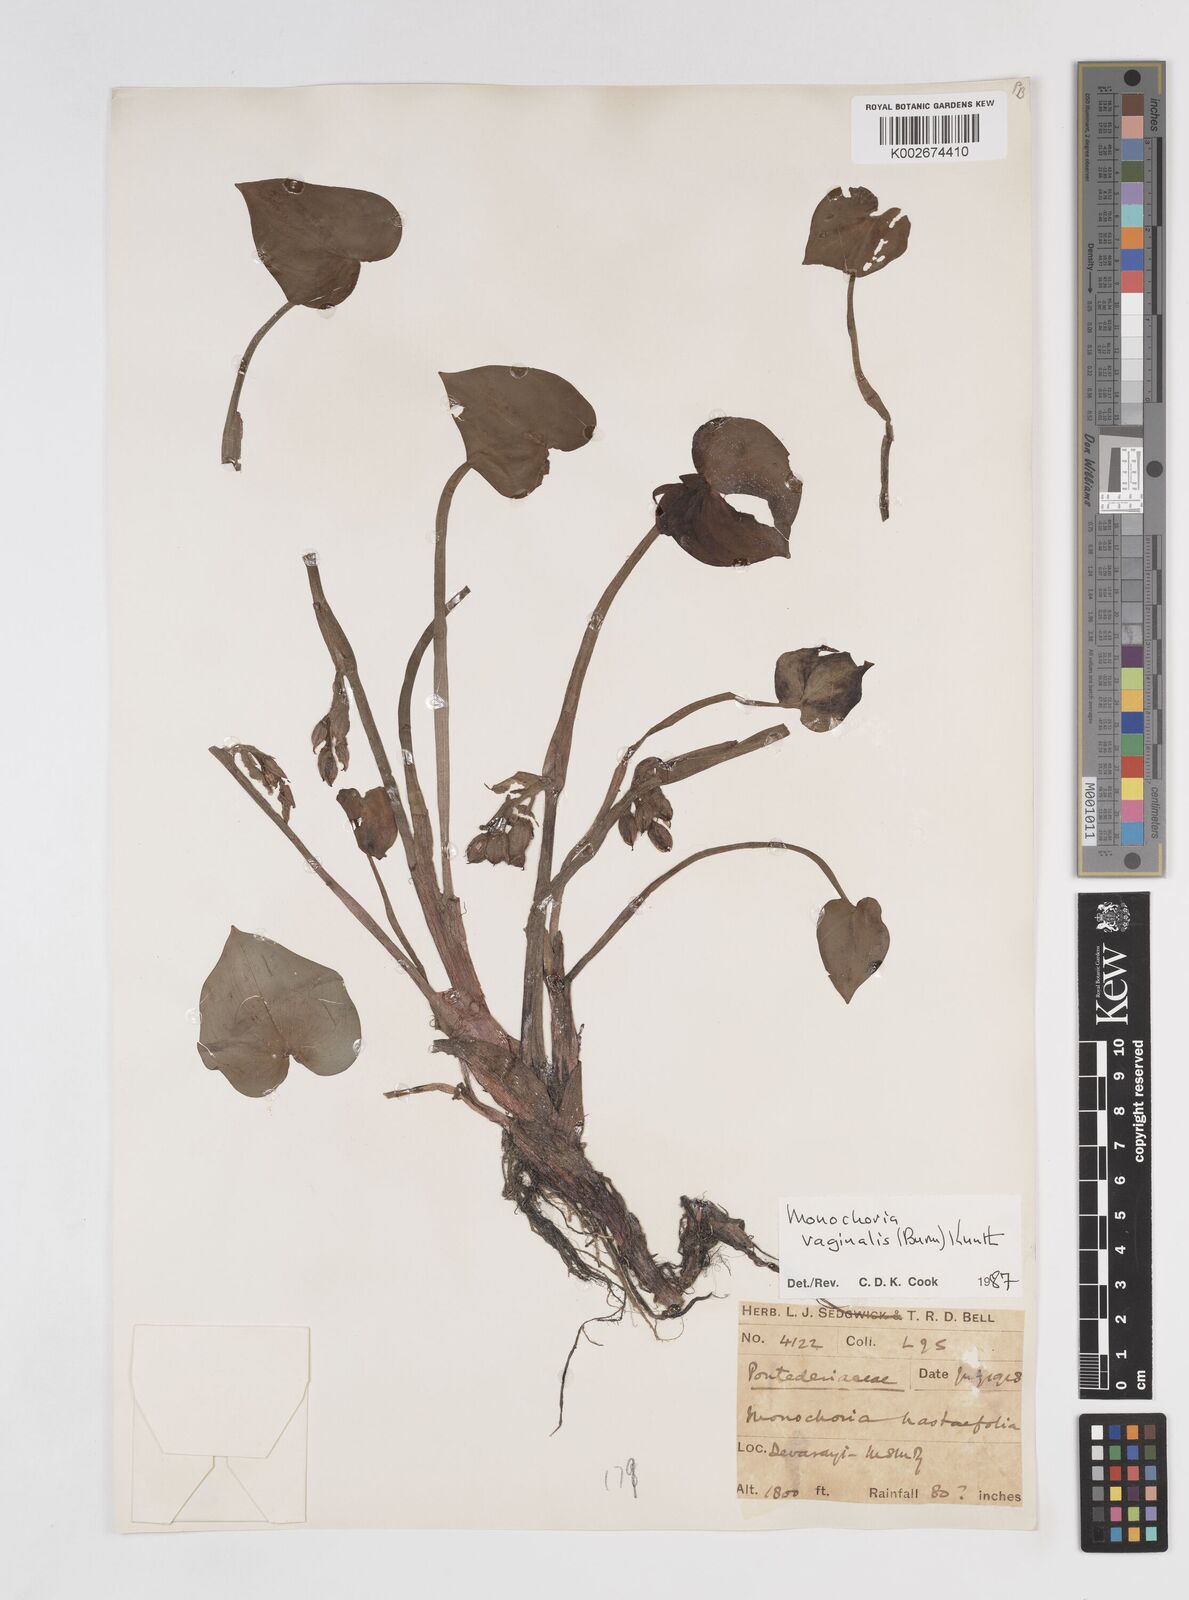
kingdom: Plantae
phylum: Tracheophyta
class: Liliopsida
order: Commelinales
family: Pontederiaceae
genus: Pontederia
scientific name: Pontederia vaginalis
